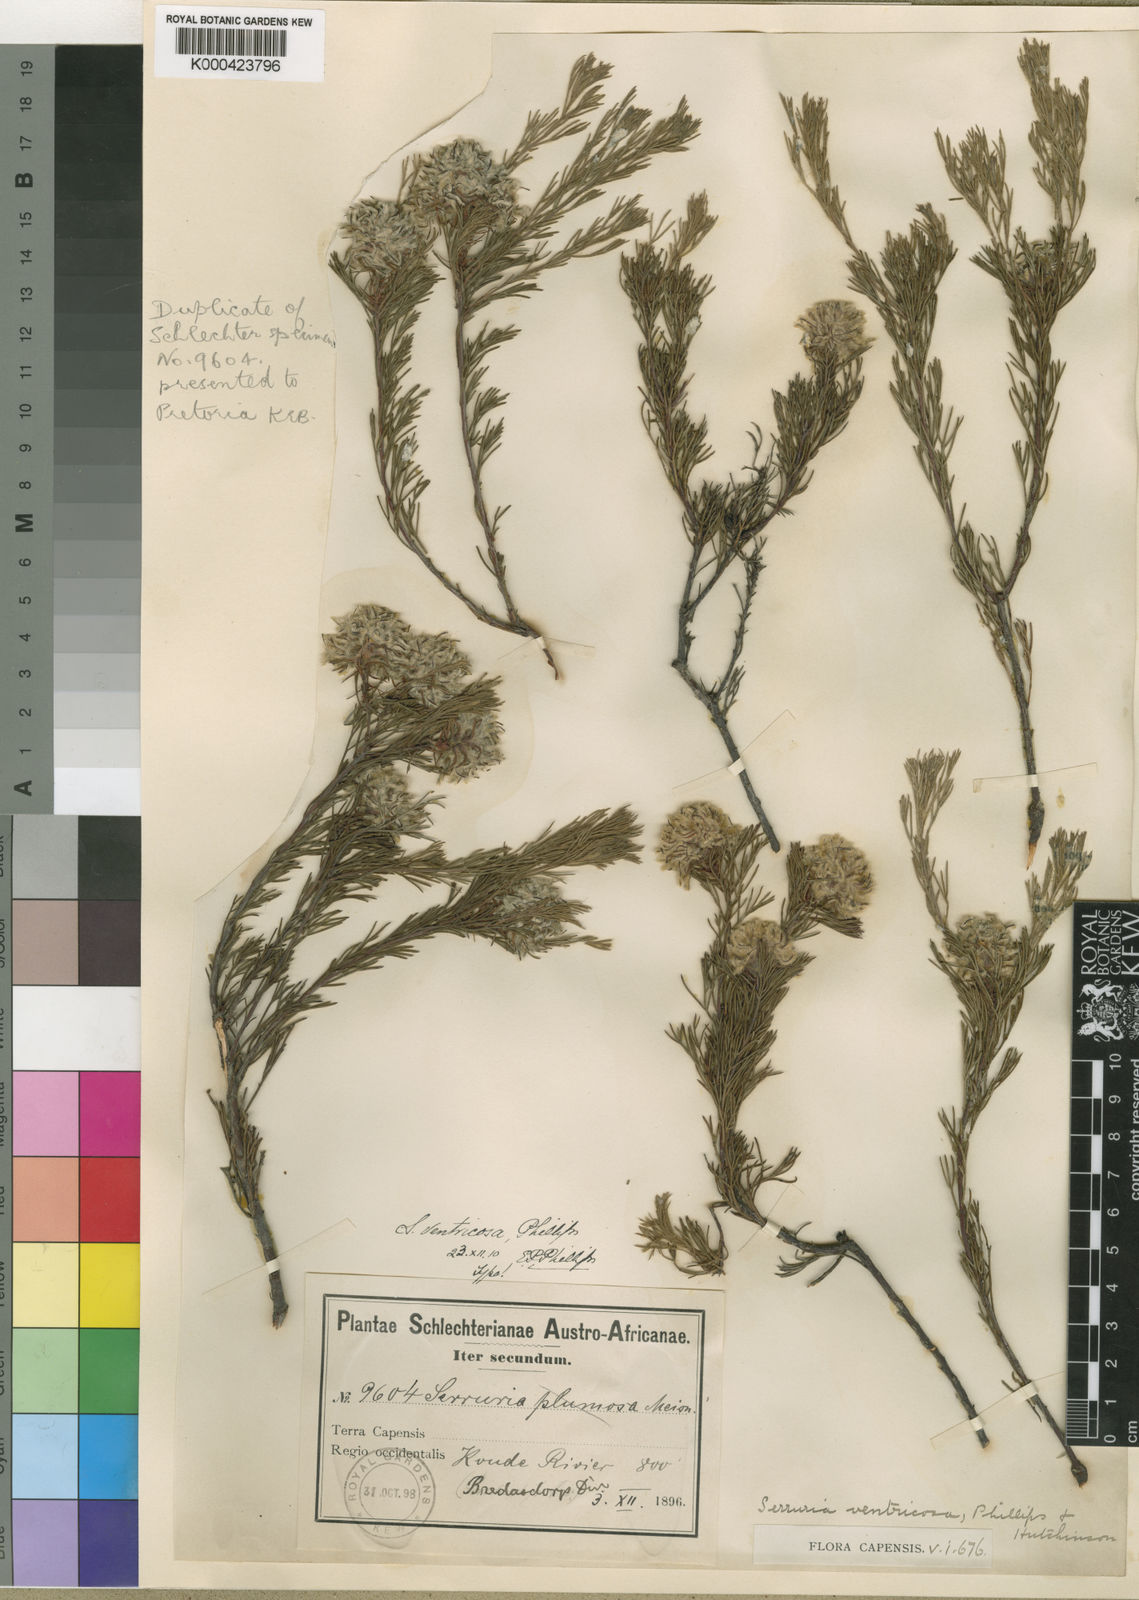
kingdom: Plantae
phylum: Tracheophyta
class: Magnoliopsida
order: Proteales
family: Proteaceae
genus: Serruria
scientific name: Serruria nervosa
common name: Fluted spiderhead
